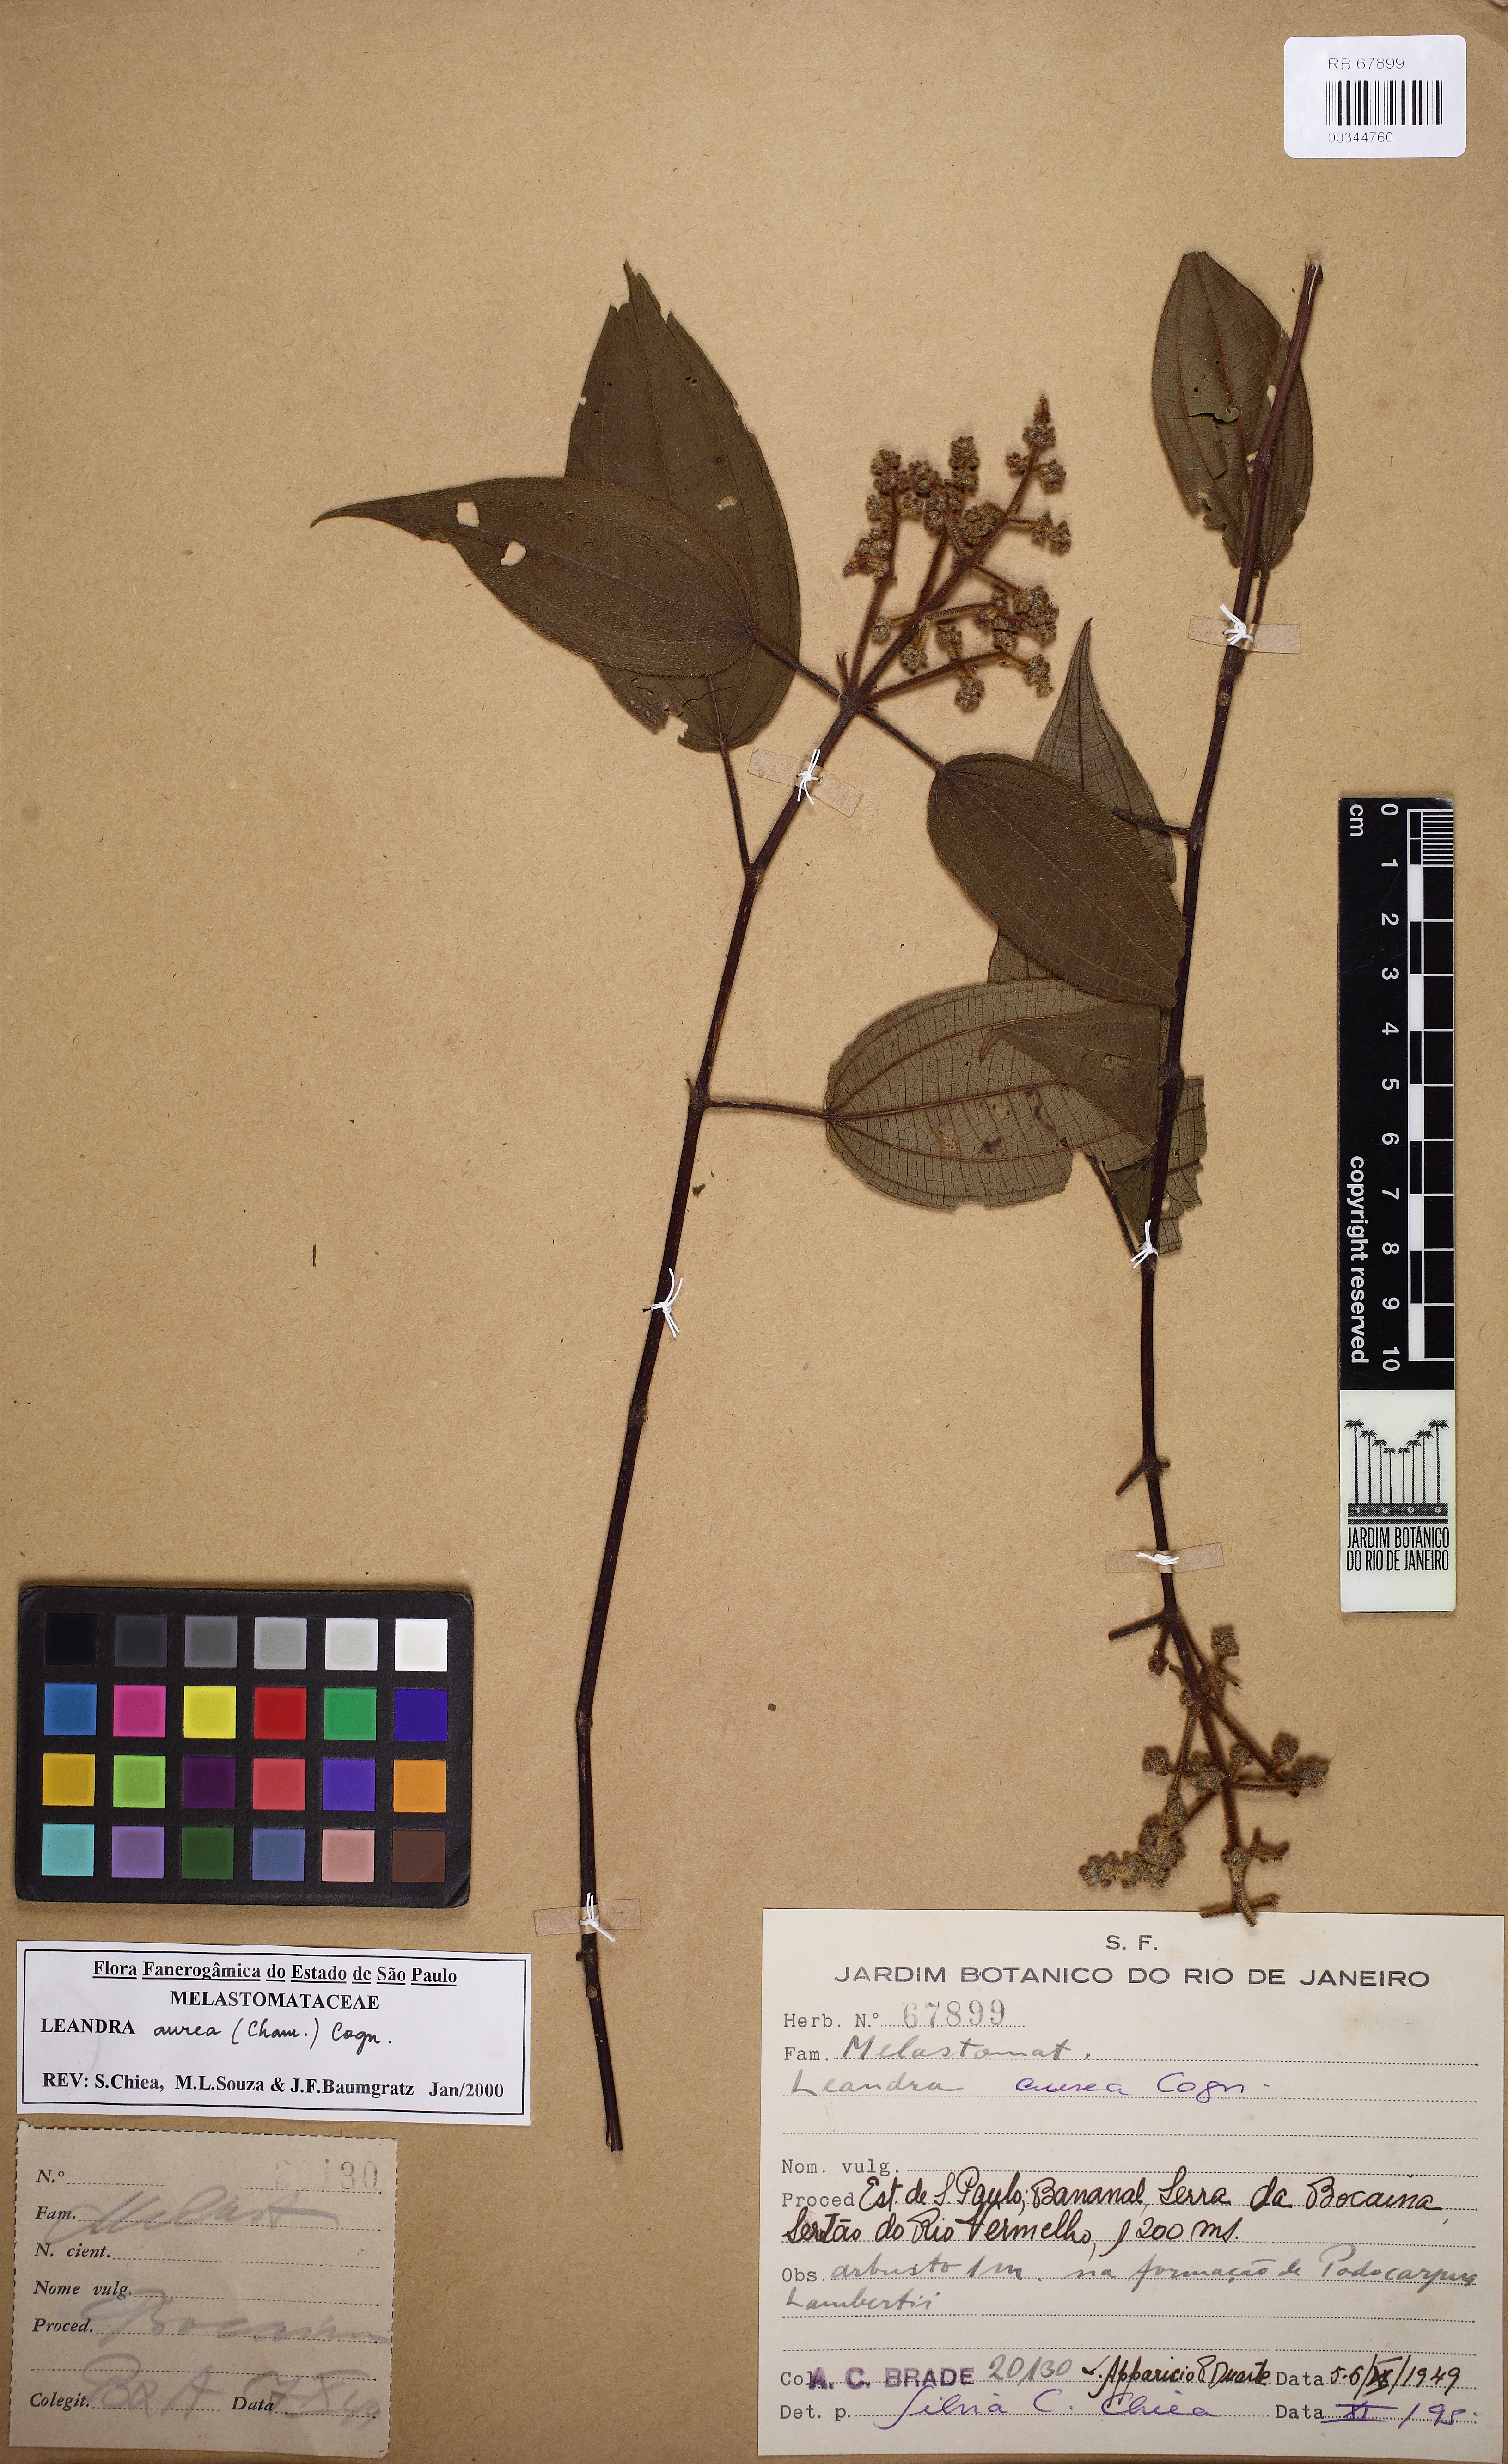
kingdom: Plantae
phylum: Tracheophyta
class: Magnoliopsida
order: Myrtales
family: Melastomataceae
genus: Miconia
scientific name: Miconia auricoma
